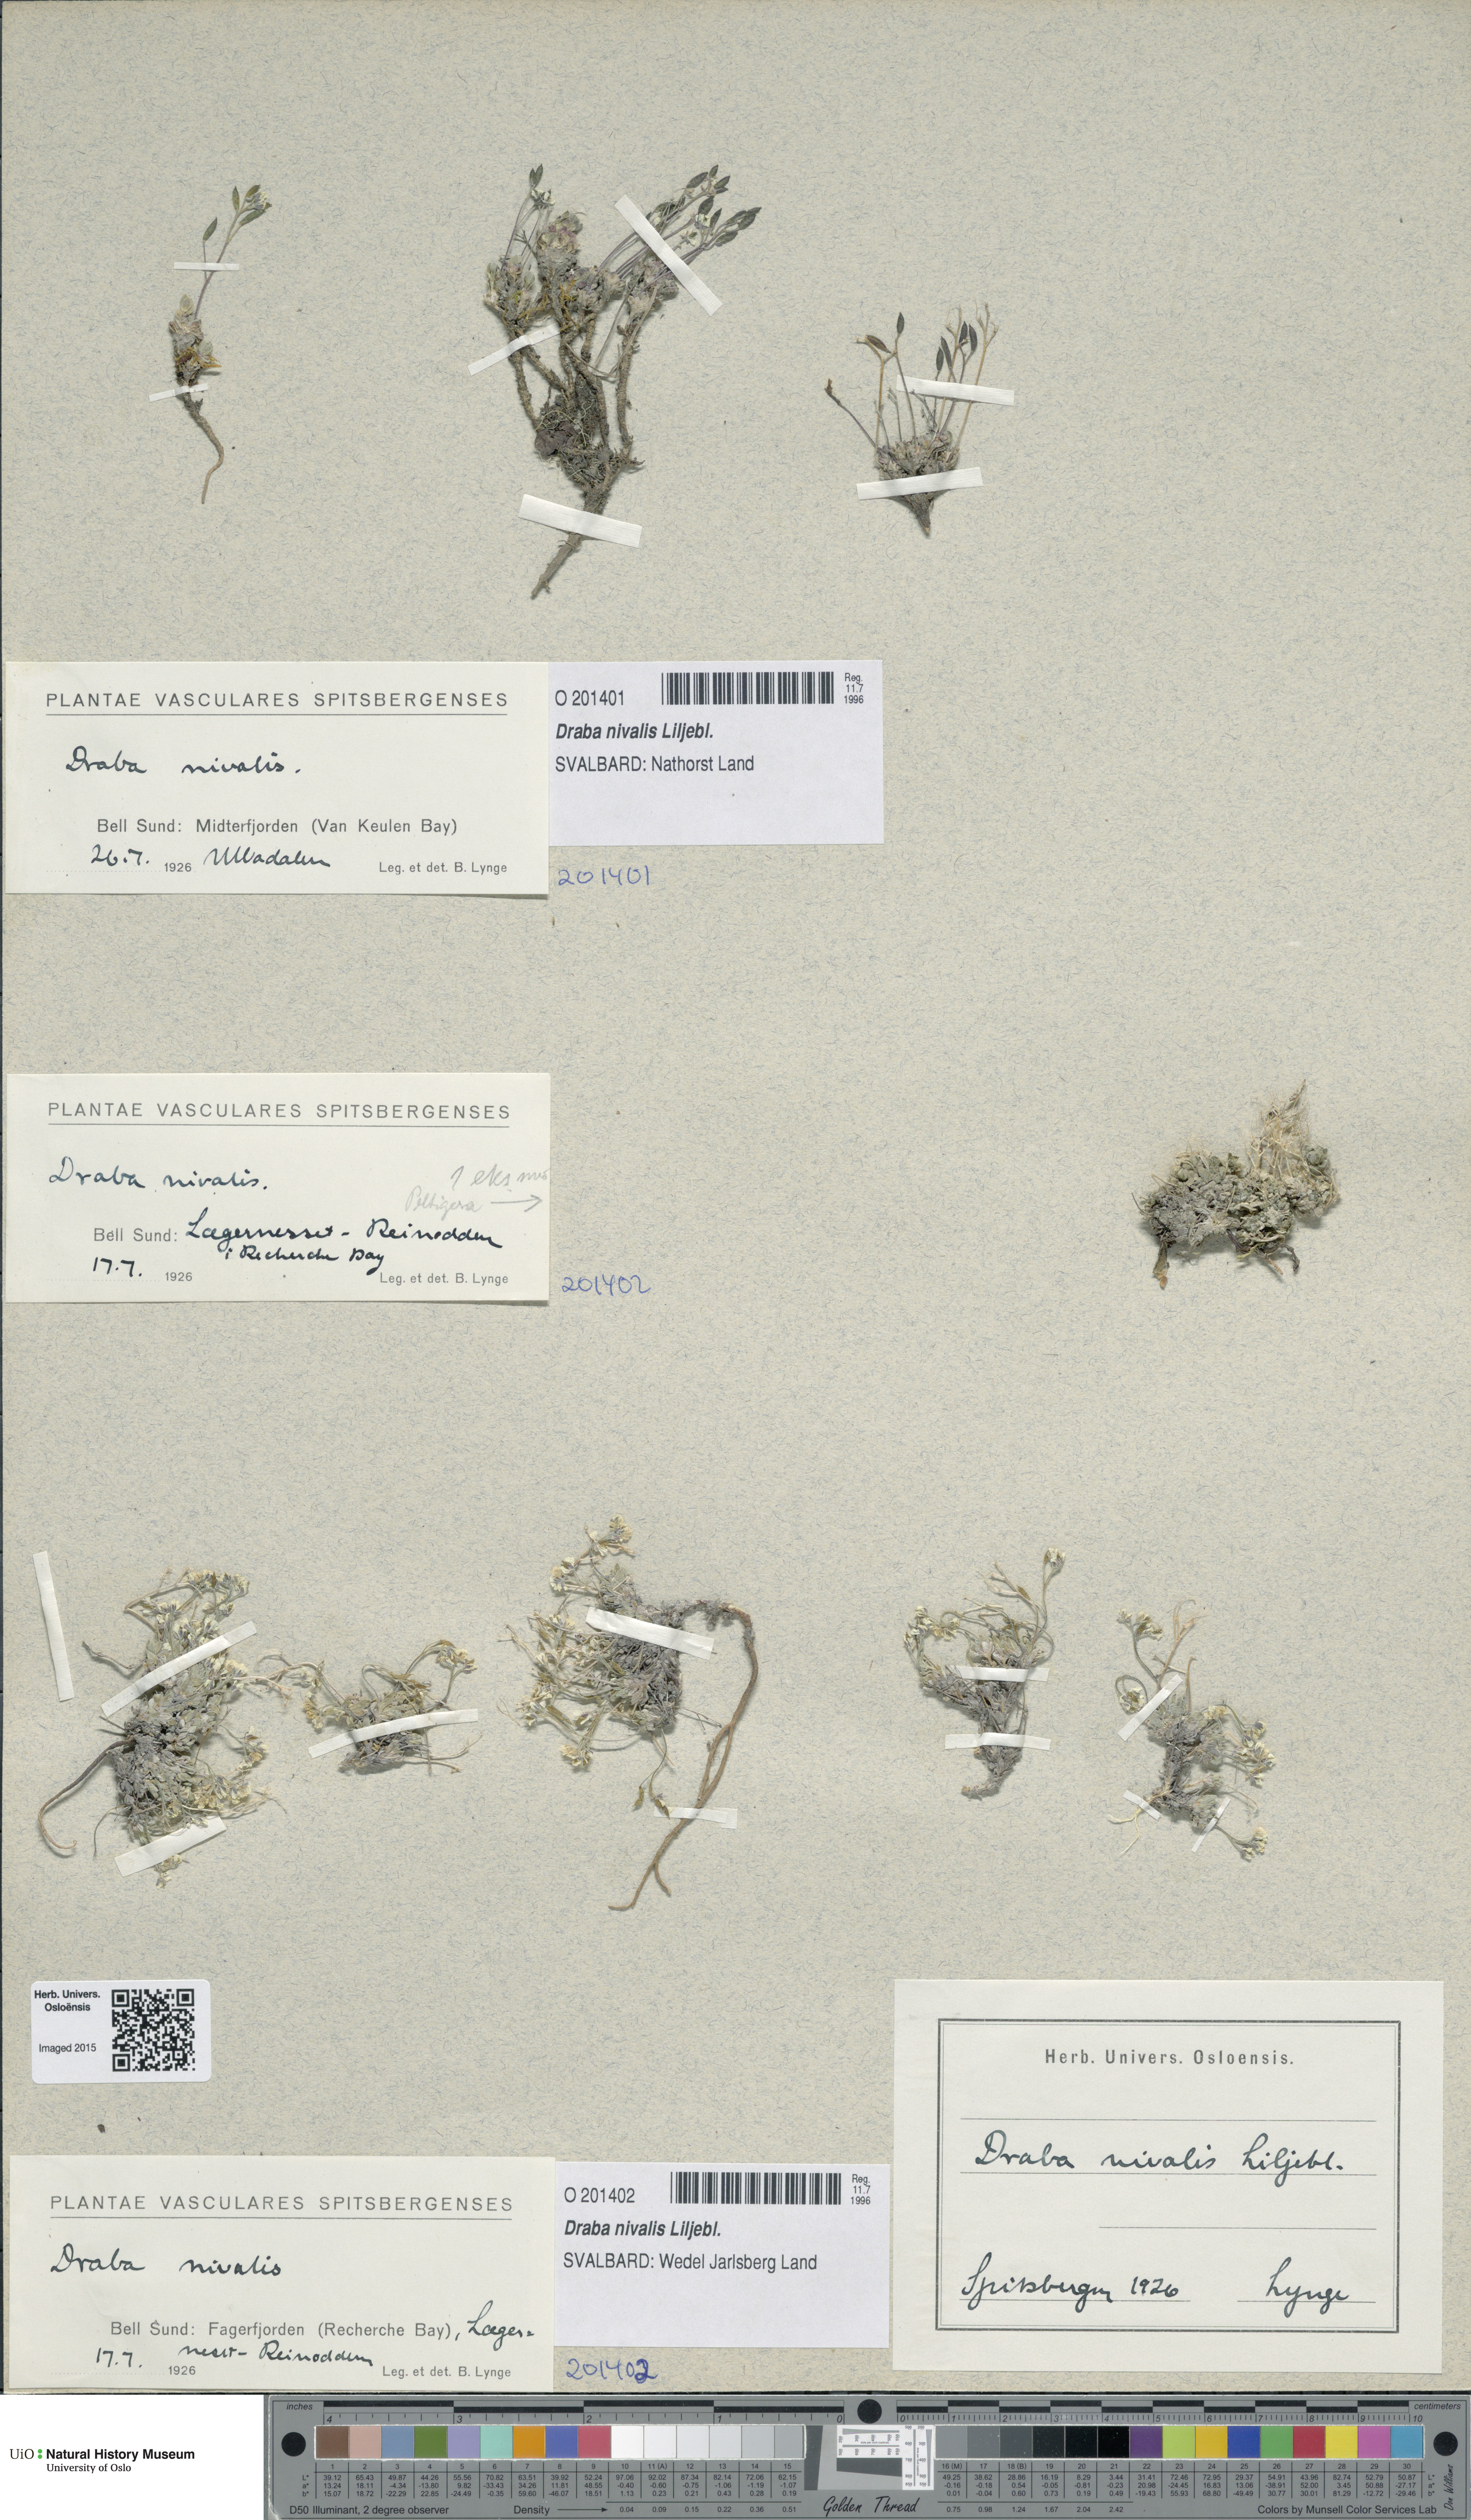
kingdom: Plantae
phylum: Tracheophyta
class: Magnoliopsida
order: Brassicales
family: Brassicaceae
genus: Draba
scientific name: Draba nivalis
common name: Snow draba
